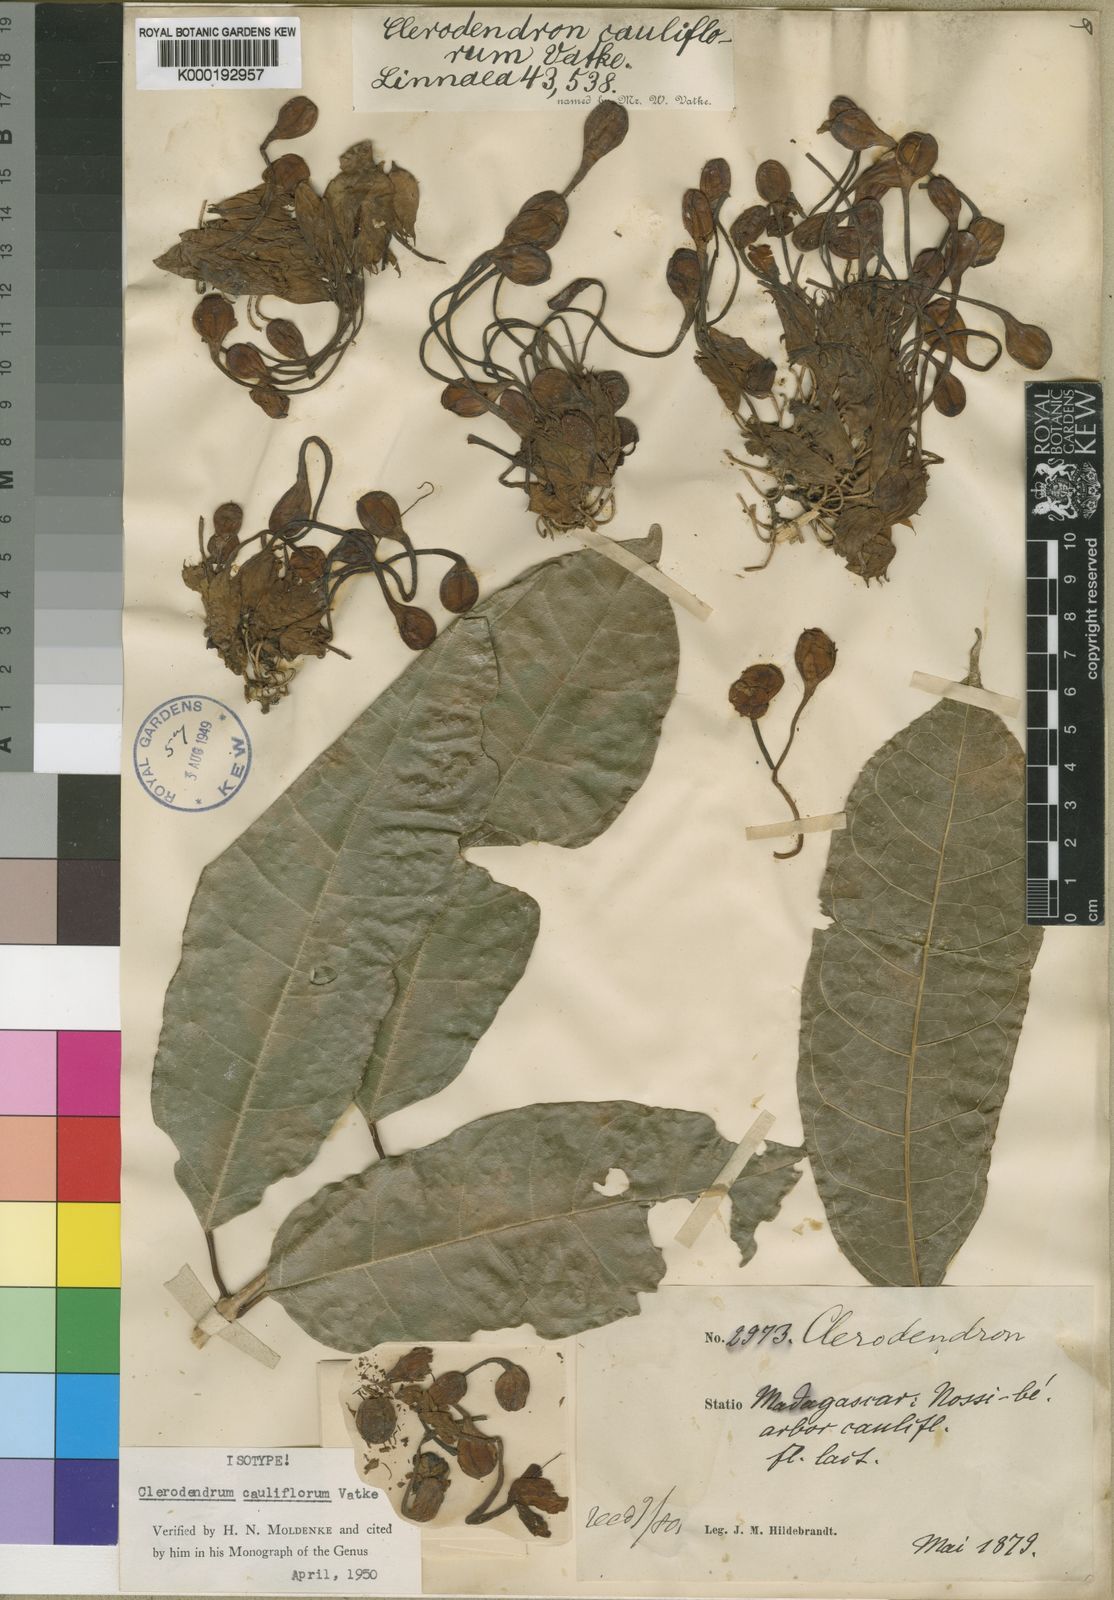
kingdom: Plantae
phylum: Tracheophyta
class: Magnoliopsida
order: Lamiales
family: Lamiaceae
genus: Clerodendrum
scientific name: Clerodendrum
